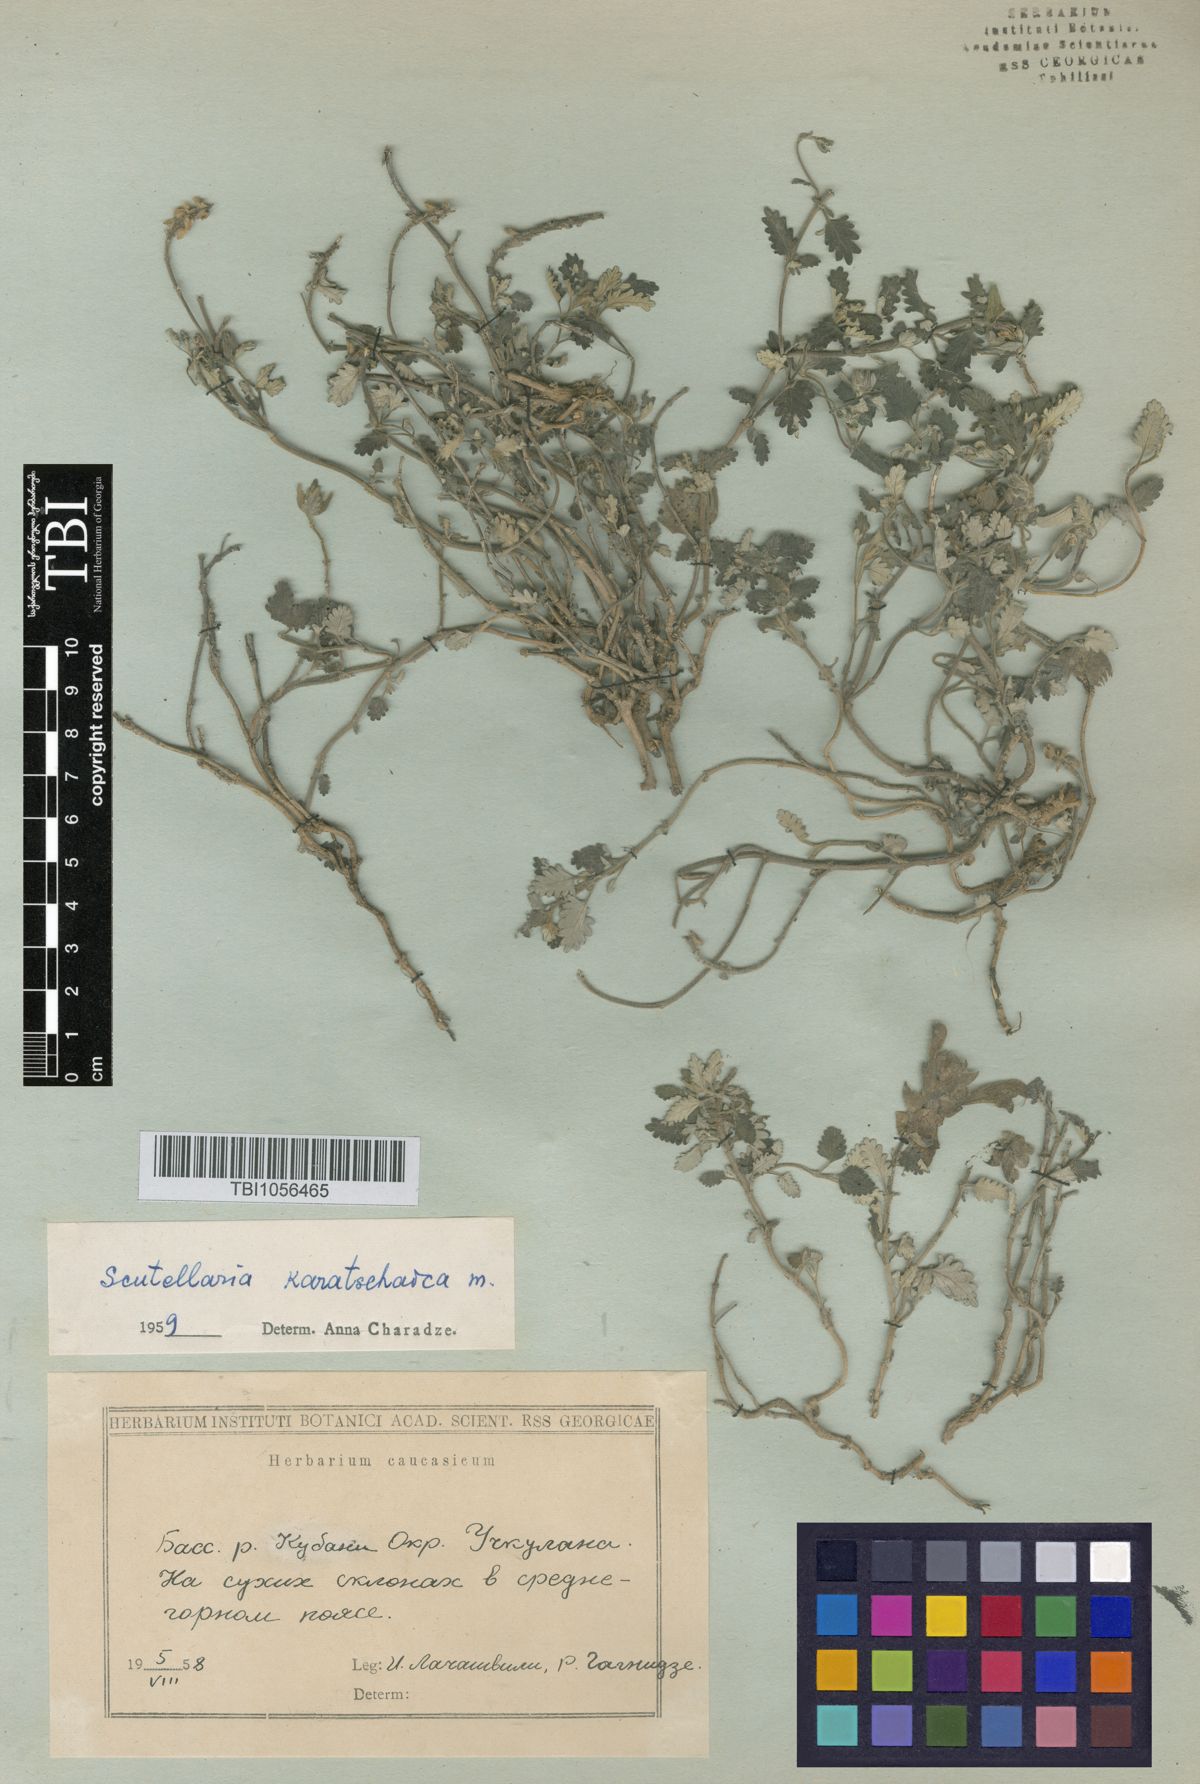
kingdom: Plantae
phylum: Tracheophyta
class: Magnoliopsida
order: Lamiales
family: Lamiaceae
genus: Scutellaria
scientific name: Scutellaria orientalis
